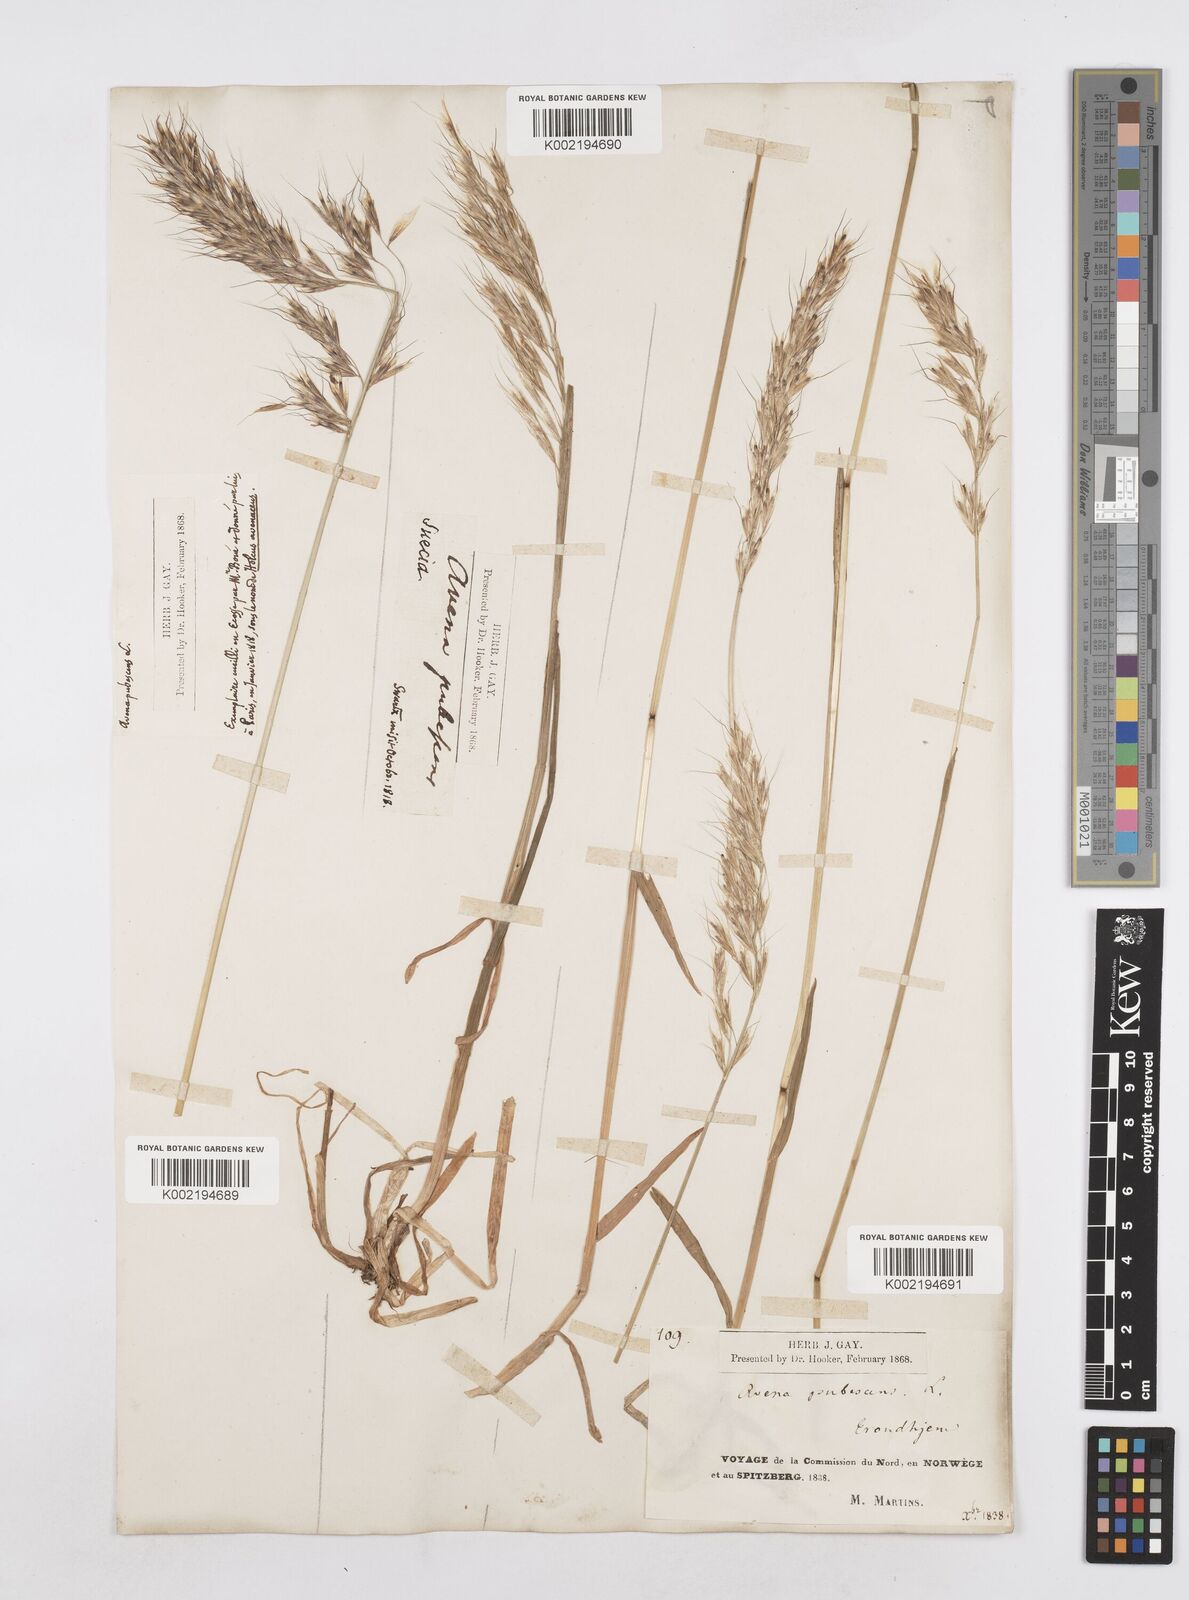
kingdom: Plantae
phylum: Tracheophyta
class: Liliopsida
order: Poales
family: Poaceae
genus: Avenula
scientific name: Avenula pubescens
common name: Downy alpine oatgrass
